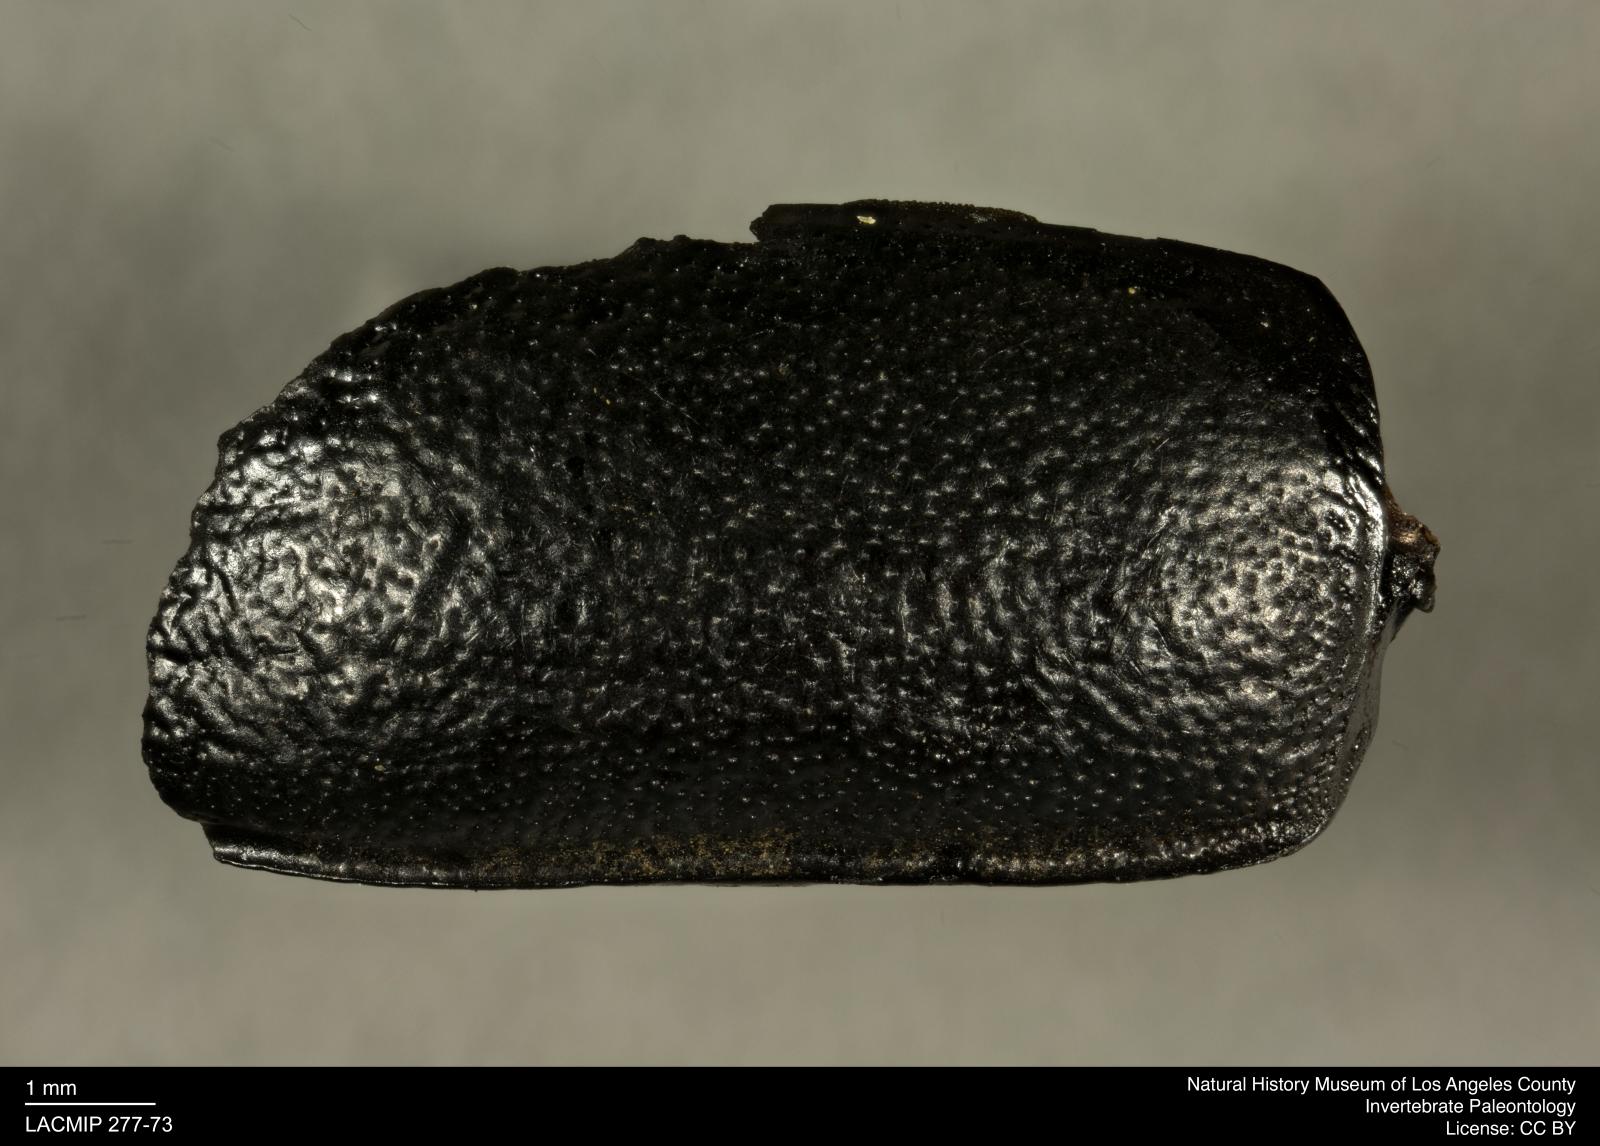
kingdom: Animalia
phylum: Arthropoda
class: Insecta
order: Coleoptera
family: Tenebrionidae
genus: Coniontis
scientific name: Coniontis abdominalis
